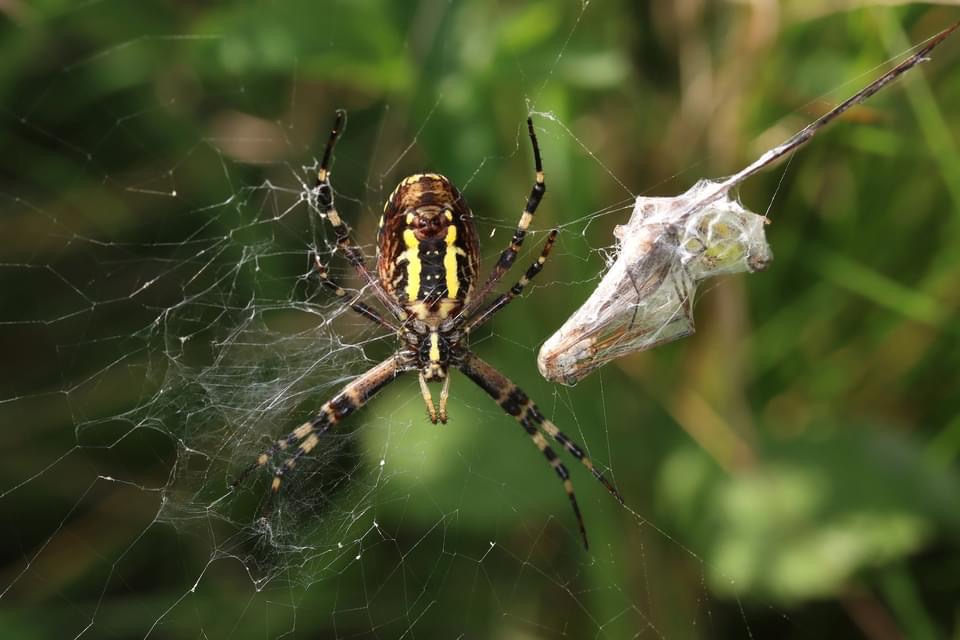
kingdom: Animalia
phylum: Arthropoda
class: Arachnida
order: Araneae
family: Araneidae
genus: Argiope
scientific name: Argiope bruennichi
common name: Hvepseedderkop
